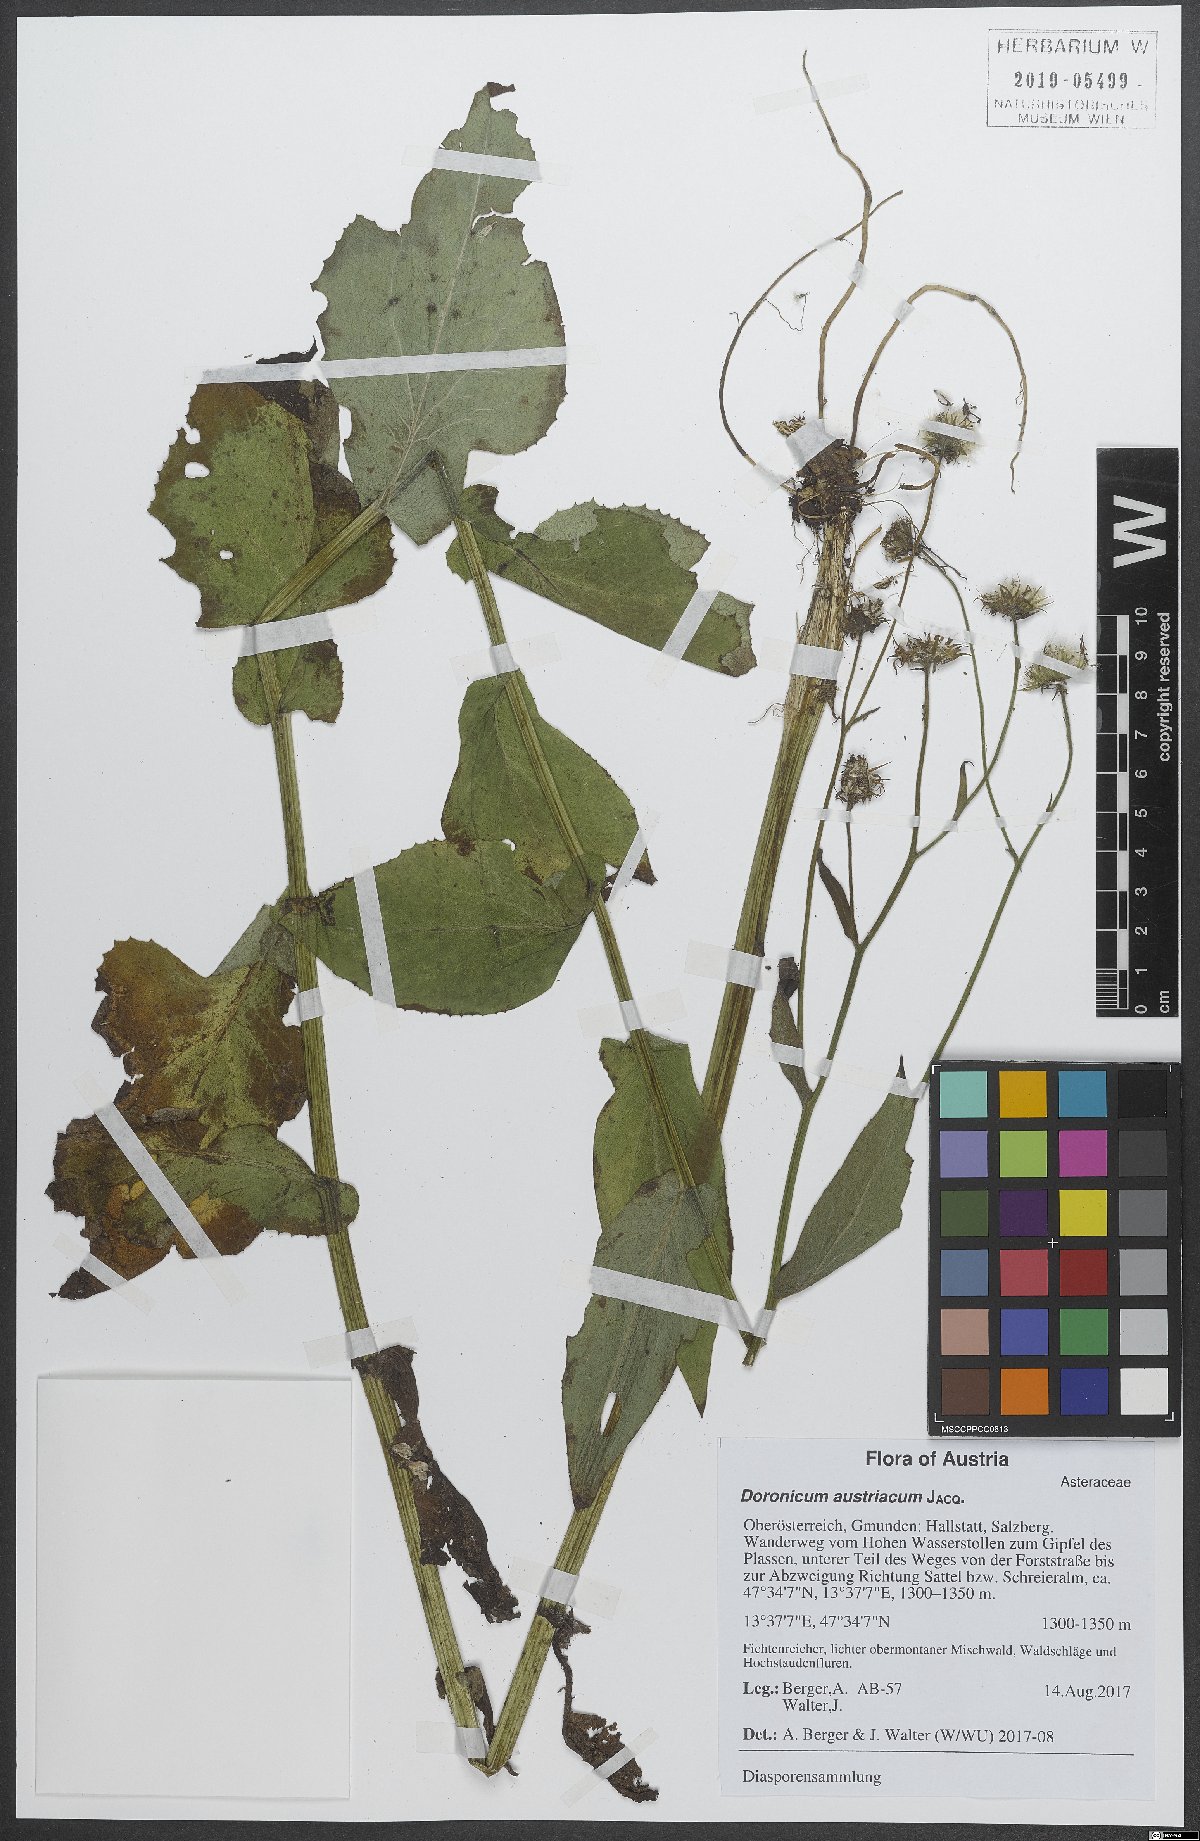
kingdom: Plantae
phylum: Tracheophyta
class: Magnoliopsida
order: Asterales
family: Asteraceae
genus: Doronicum
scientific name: Doronicum austriacum
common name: Austrian leopard's-bane
